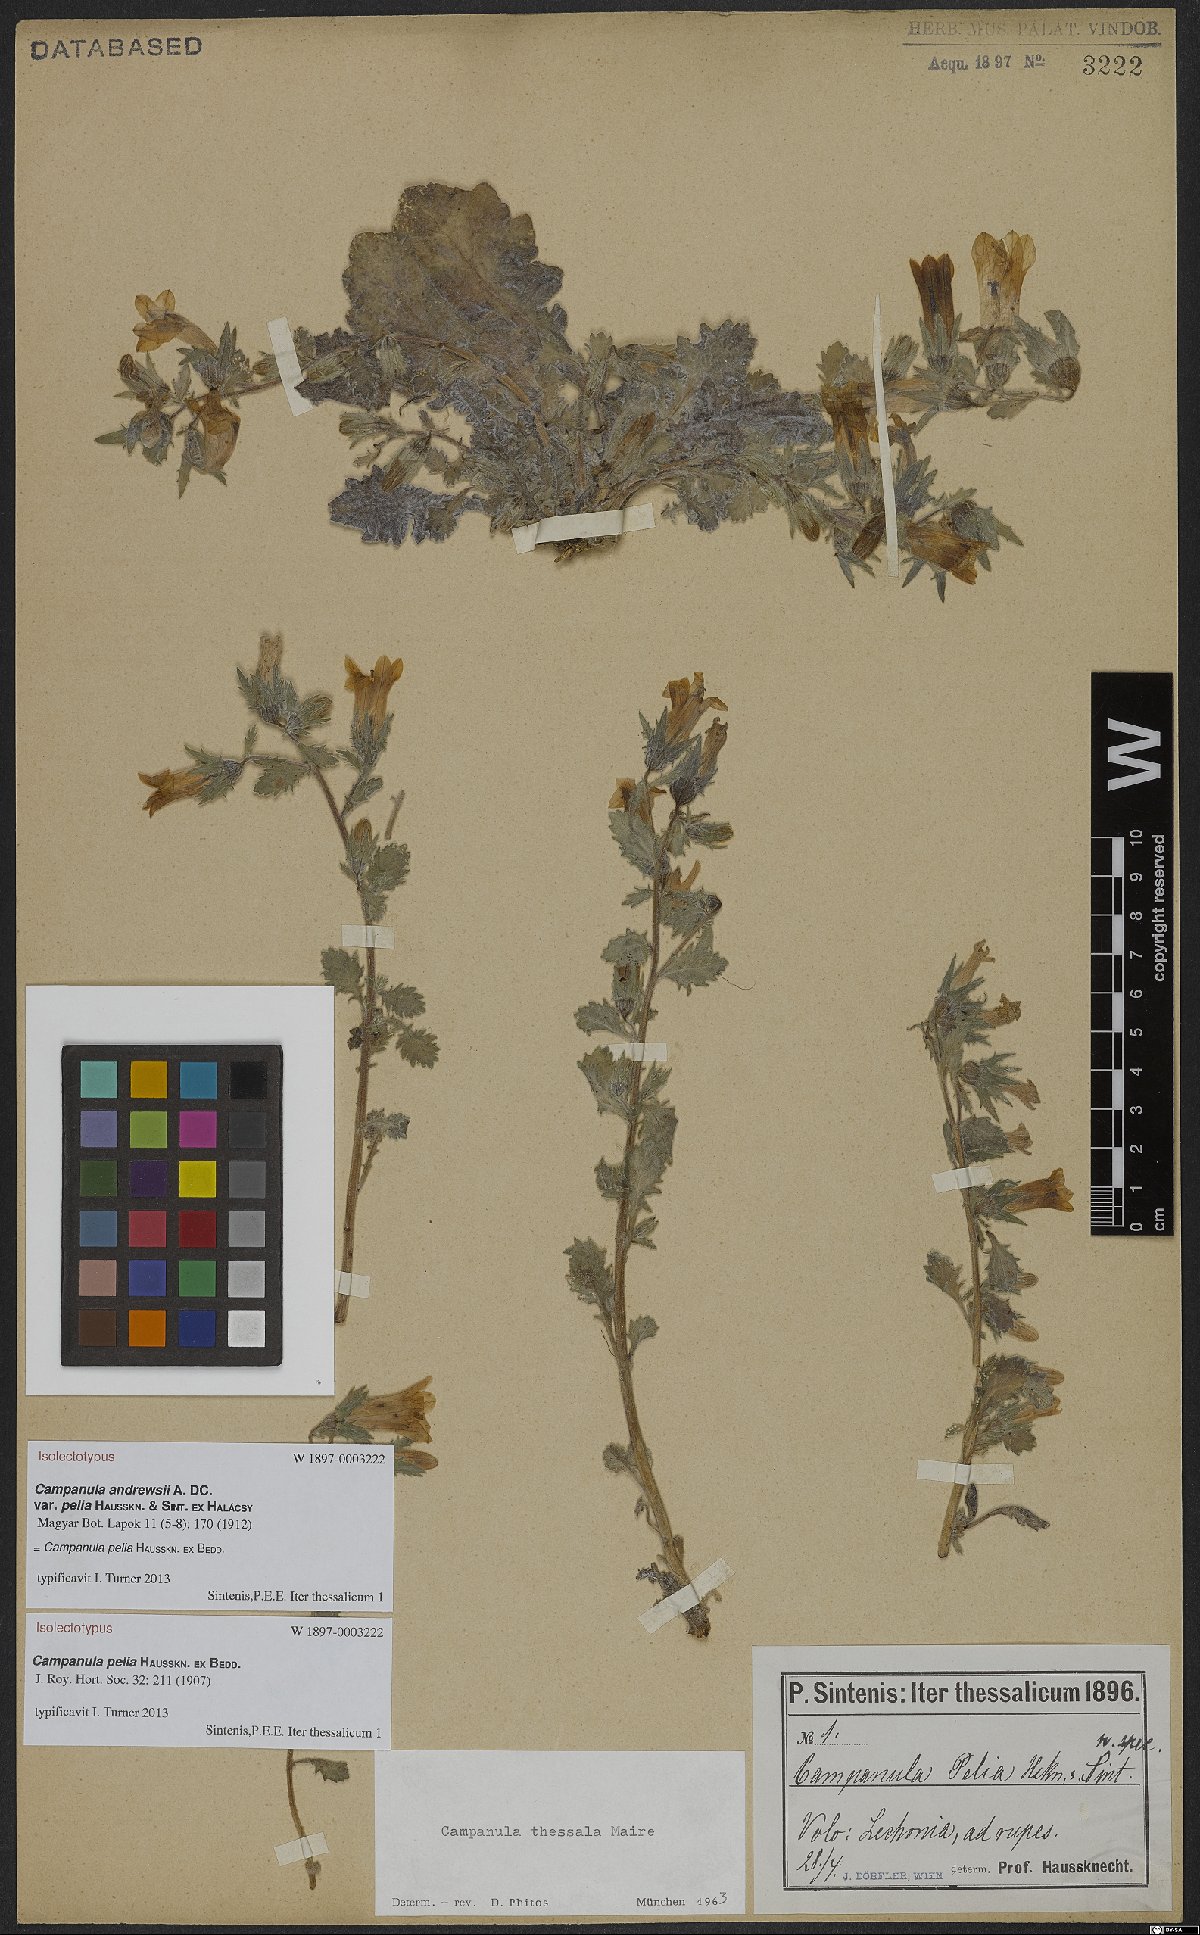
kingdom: Plantae
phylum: Tracheophyta
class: Magnoliopsida
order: Asterales
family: Campanulaceae
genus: Campanula
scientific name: Campanula pelia
